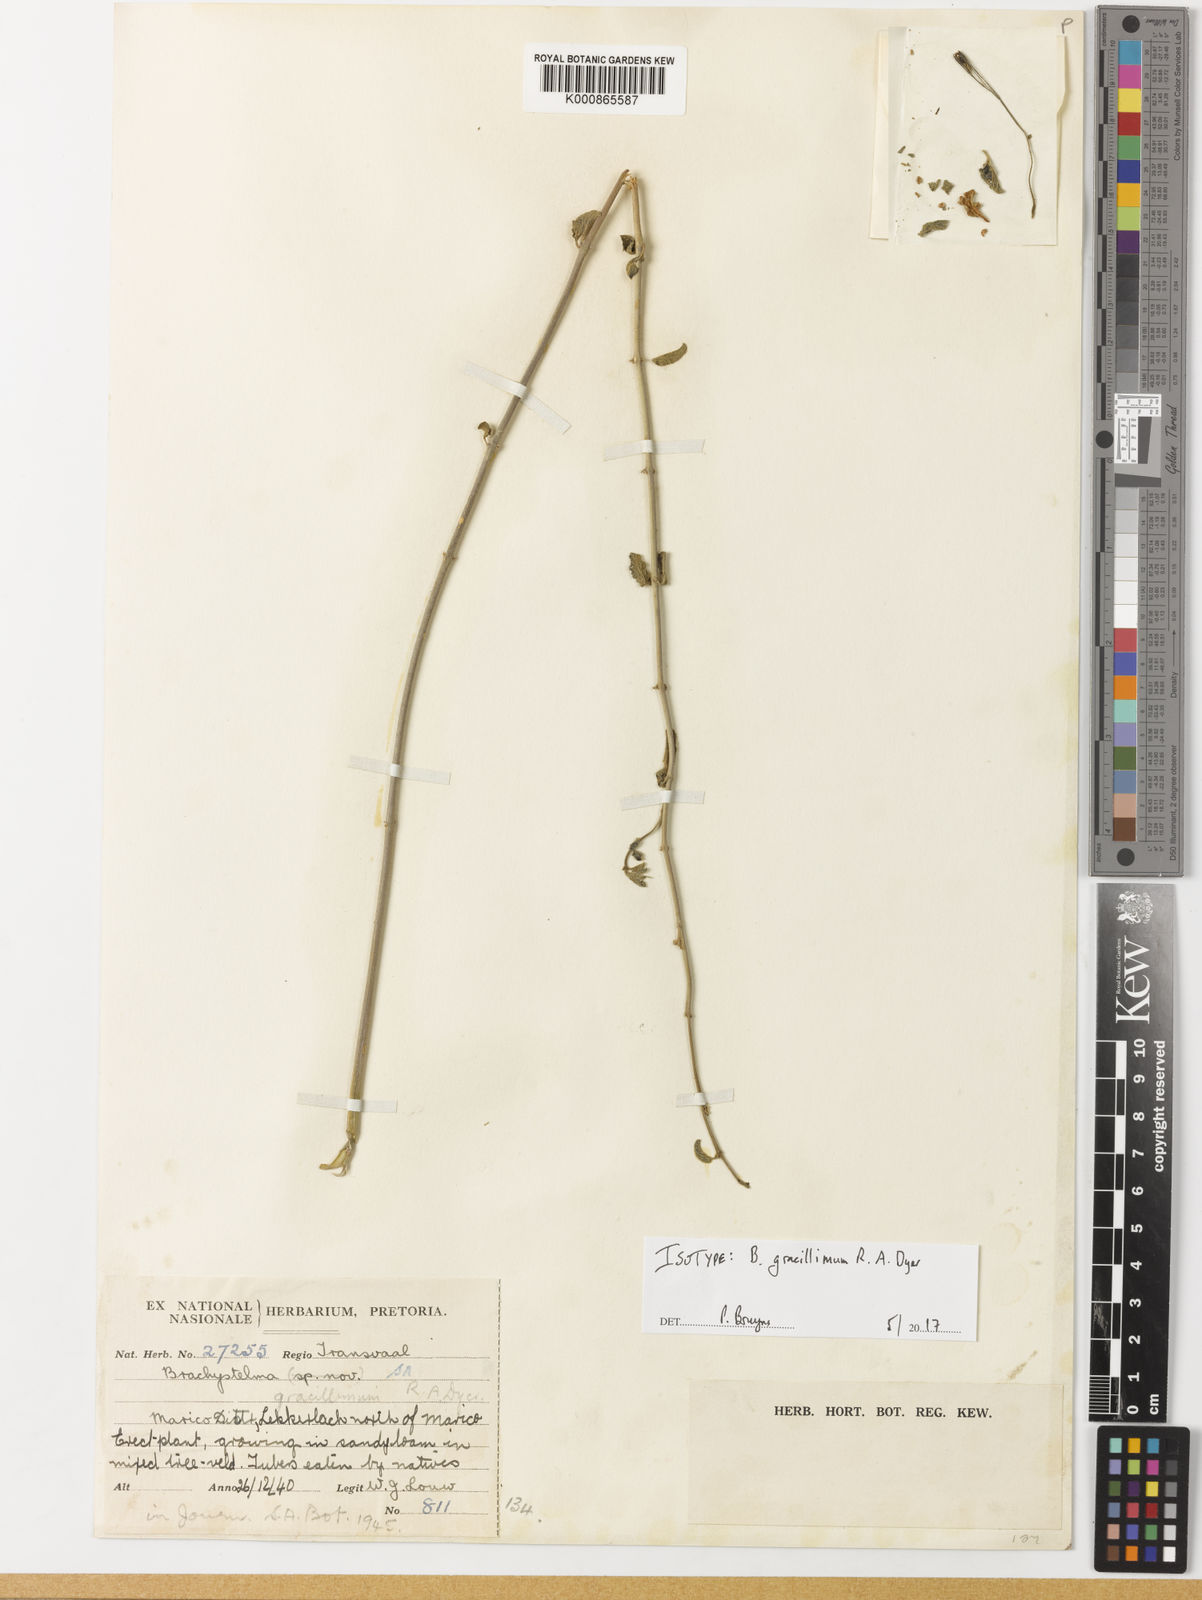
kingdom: Plantae
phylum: Tracheophyta
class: Magnoliopsida
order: Gentianales
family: Apocynaceae
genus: Ceropegia
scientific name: Ceropegia gracillima
